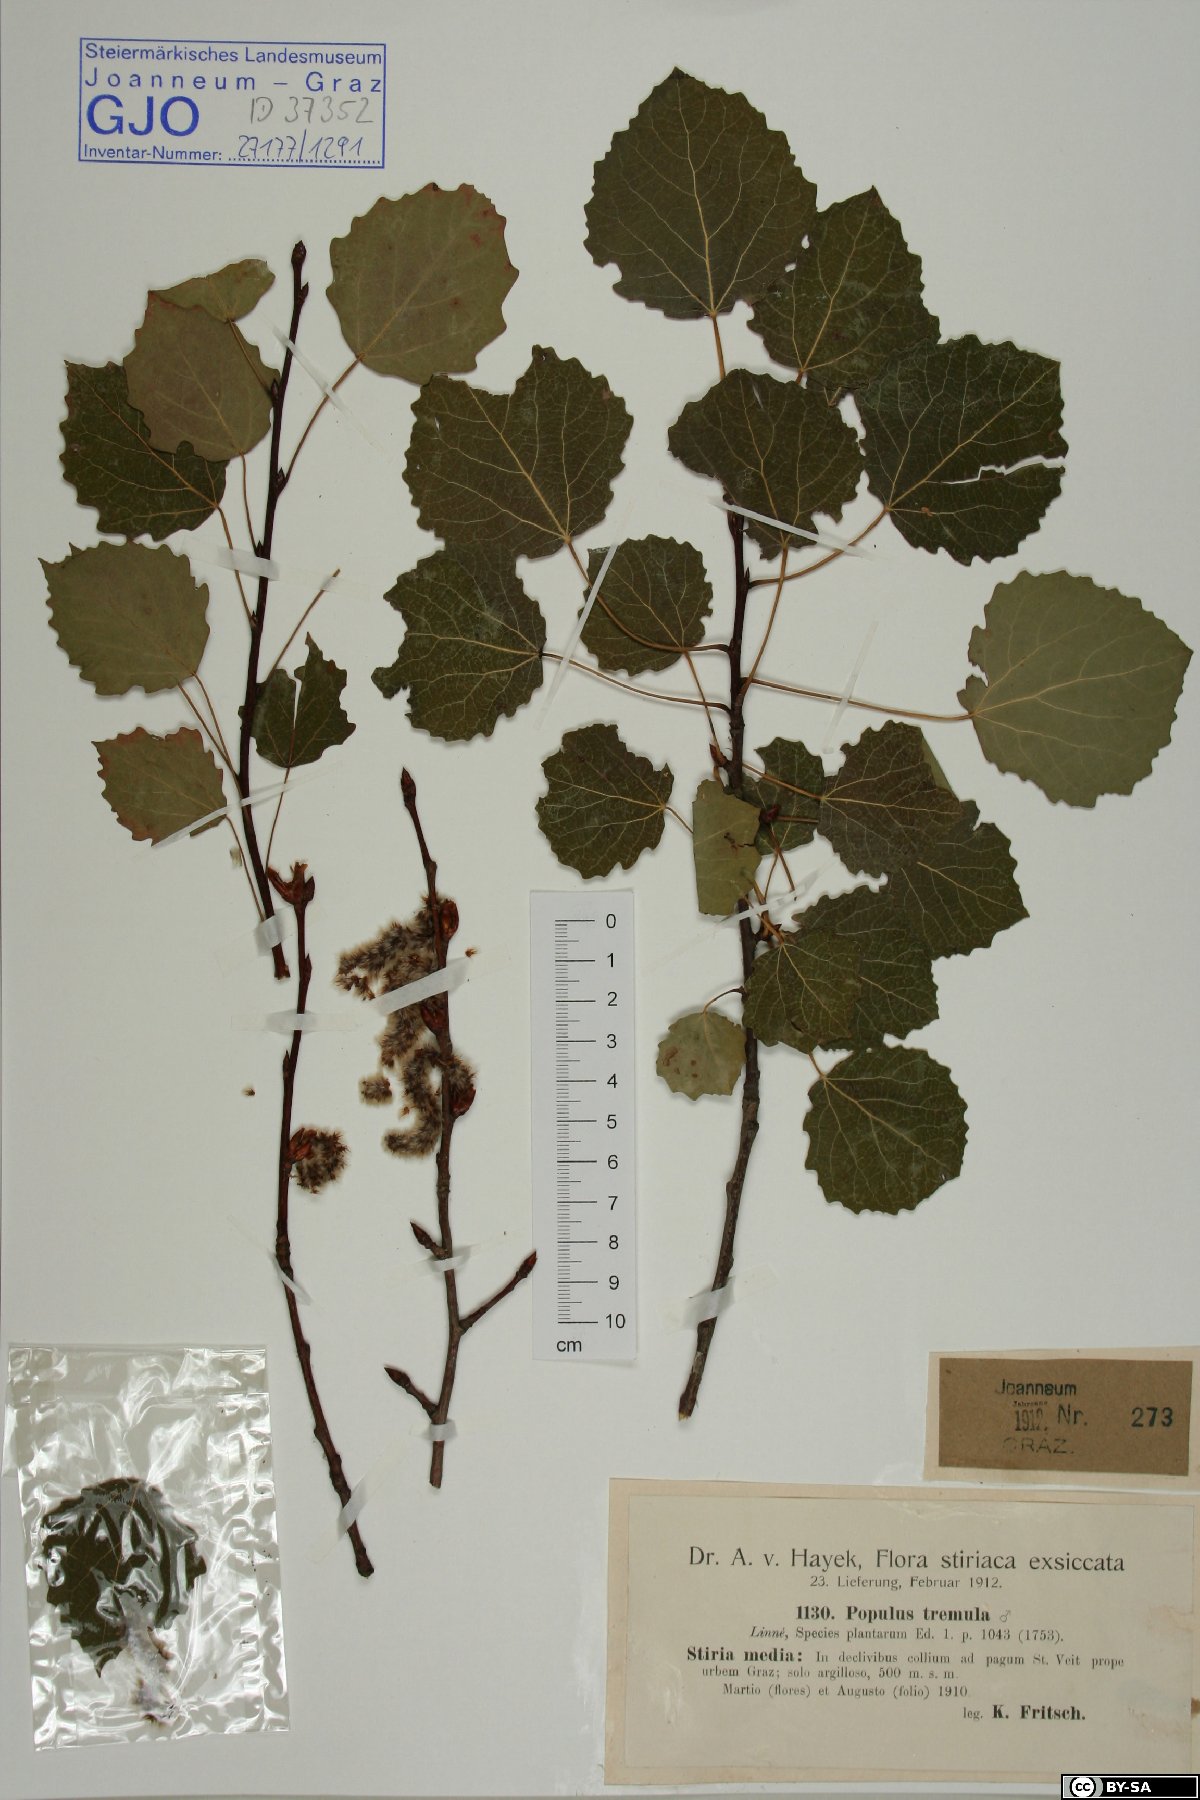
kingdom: Plantae
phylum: Tracheophyta
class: Magnoliopsida
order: Malpighiales
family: Salicaceae
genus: Populus
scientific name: Populus tremula
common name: European aspen
